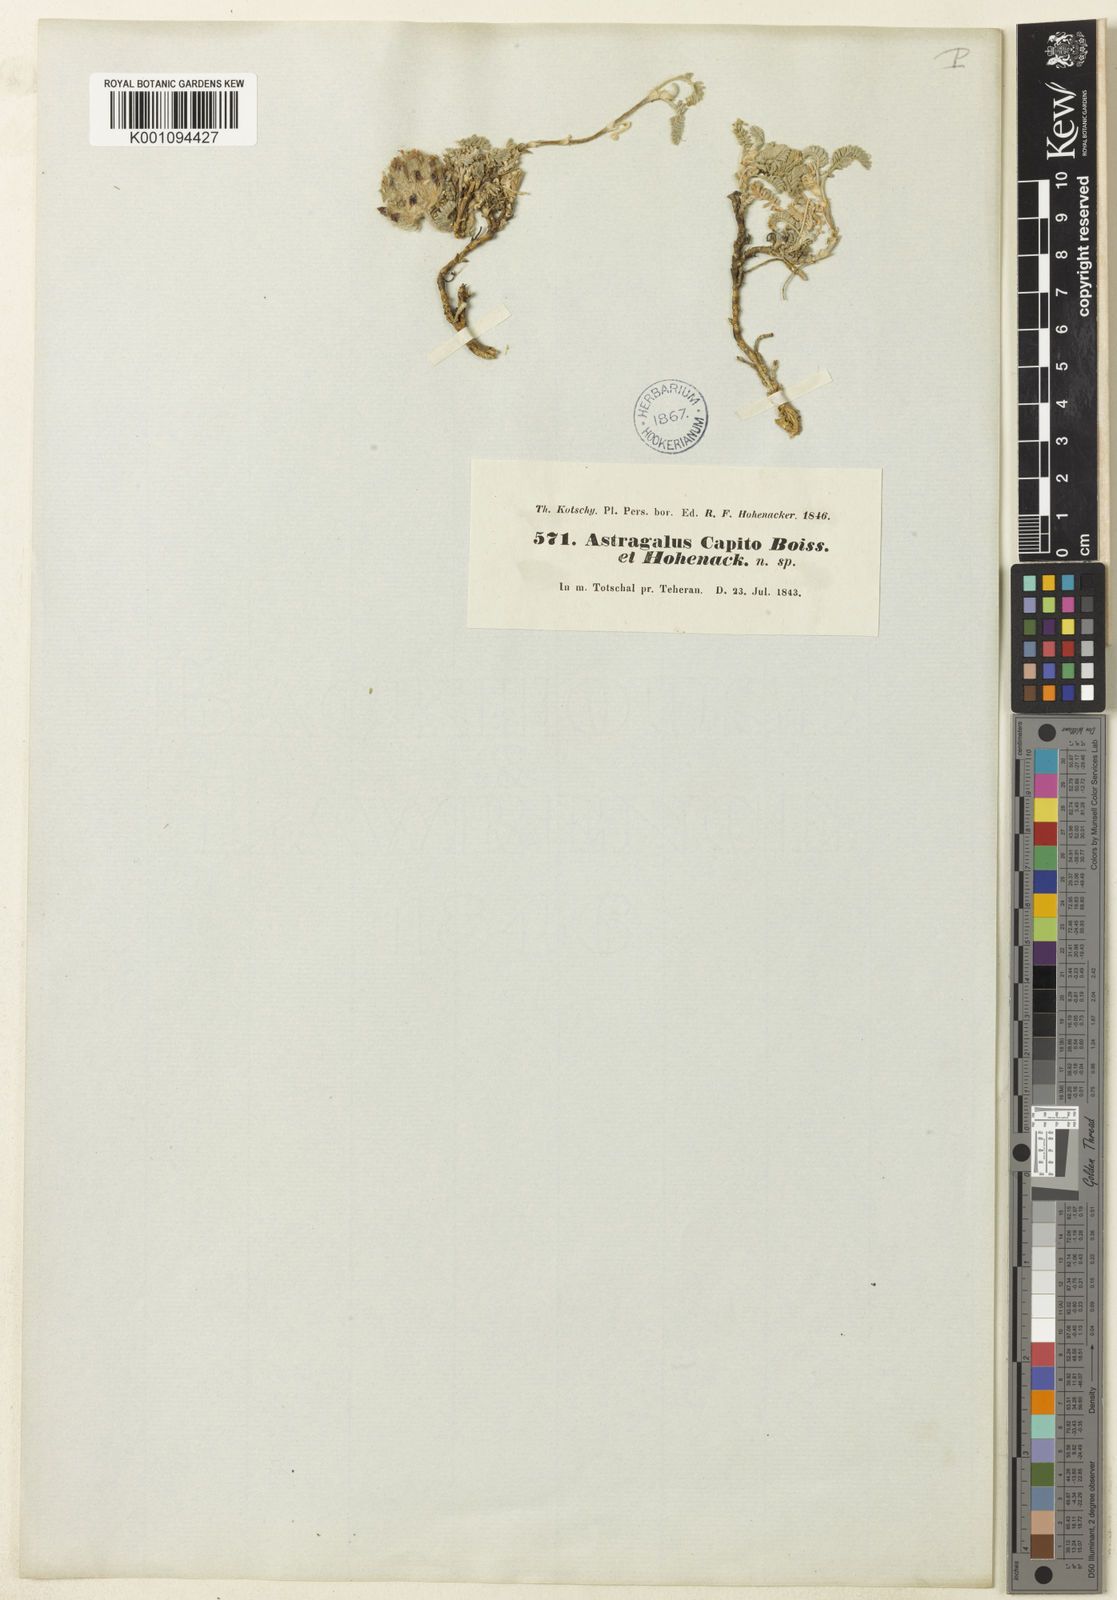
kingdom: Plantae
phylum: Tracheophyta
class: Magnoliopsida
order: Fabales
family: Fabaceae
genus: Astragalus
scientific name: Astragalus
